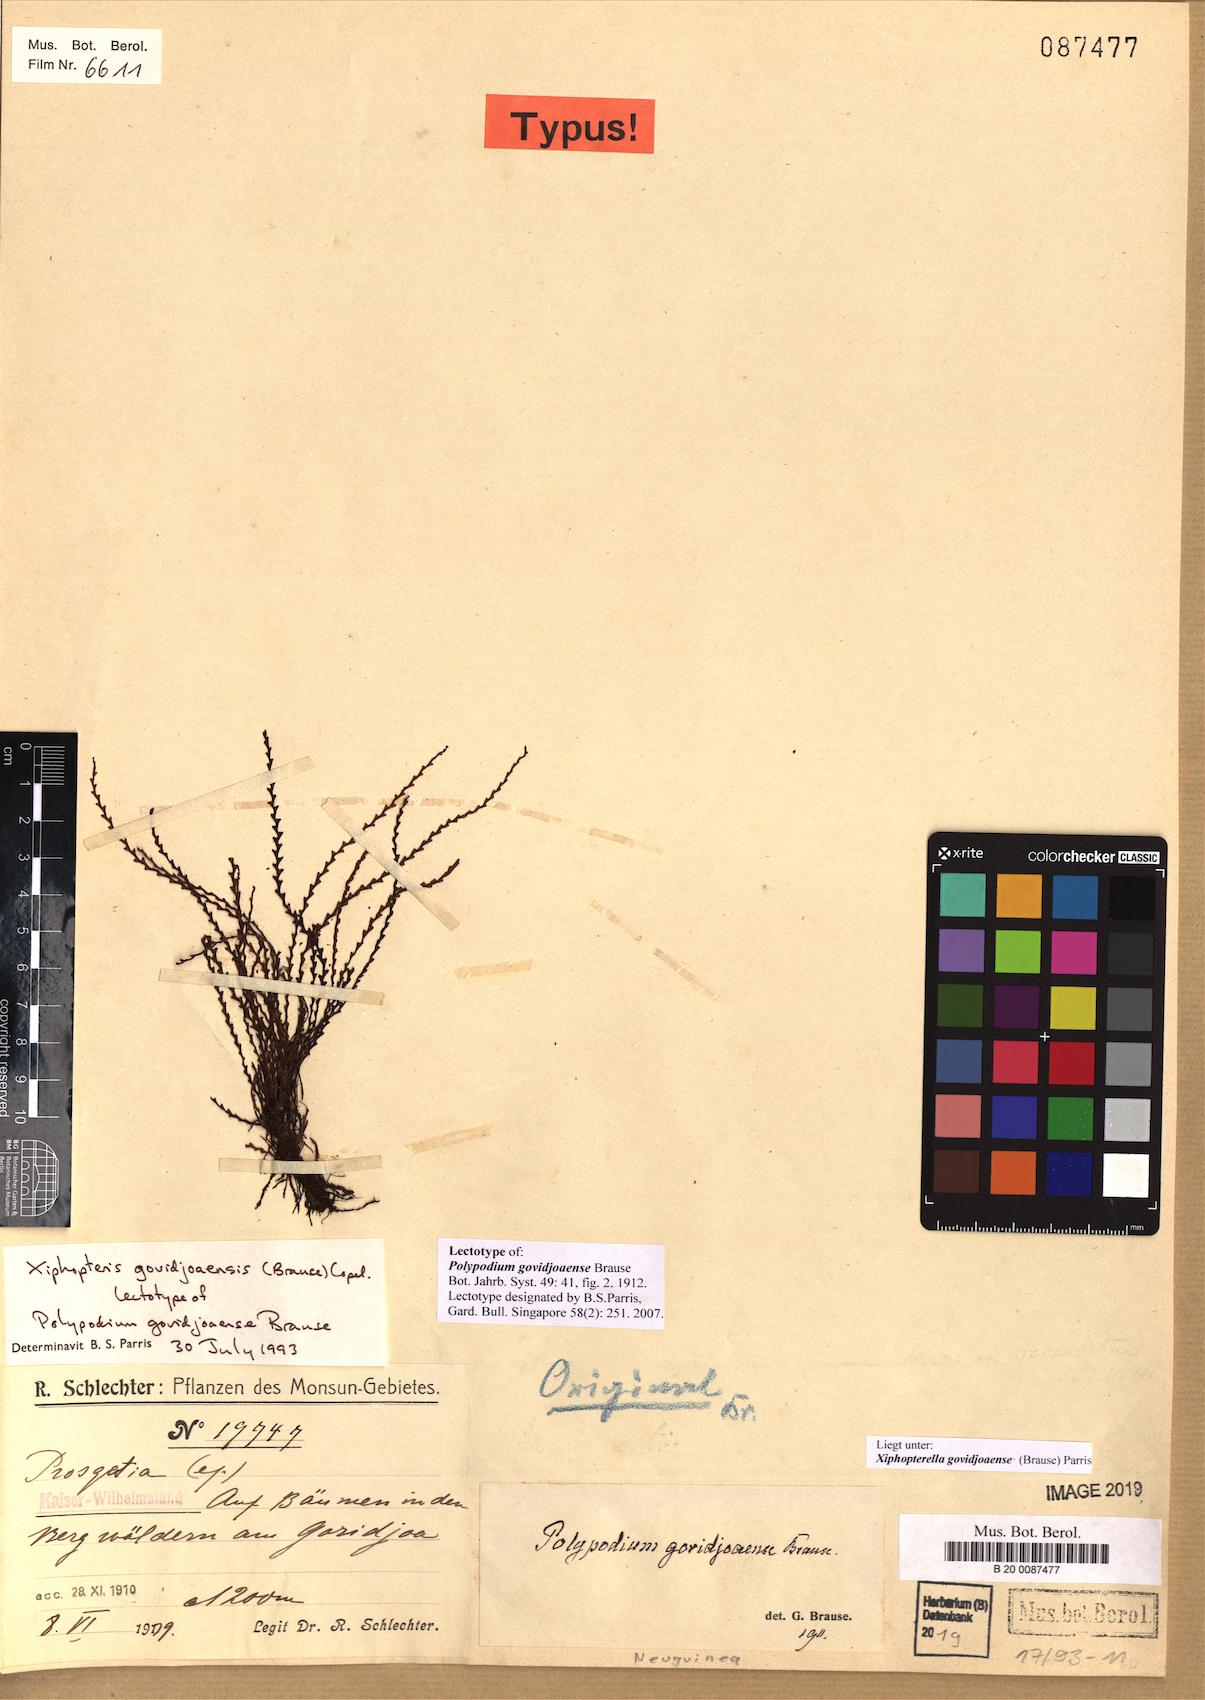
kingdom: Plantae
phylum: Tracheophyta
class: Polypodiopsida
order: Polypodiales
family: Polypodiaceae
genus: Xiphopterella
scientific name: Xiphopterella govidjoaensis
